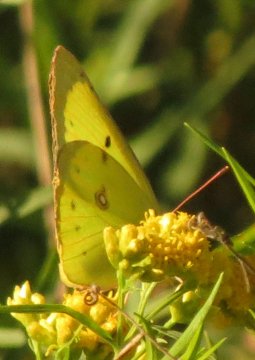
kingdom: Animalia
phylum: Arthropoda
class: Insecta
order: Lepidoptera
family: Pieridae
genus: Colias
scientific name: Colias philodice
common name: Clouded Sulphur
